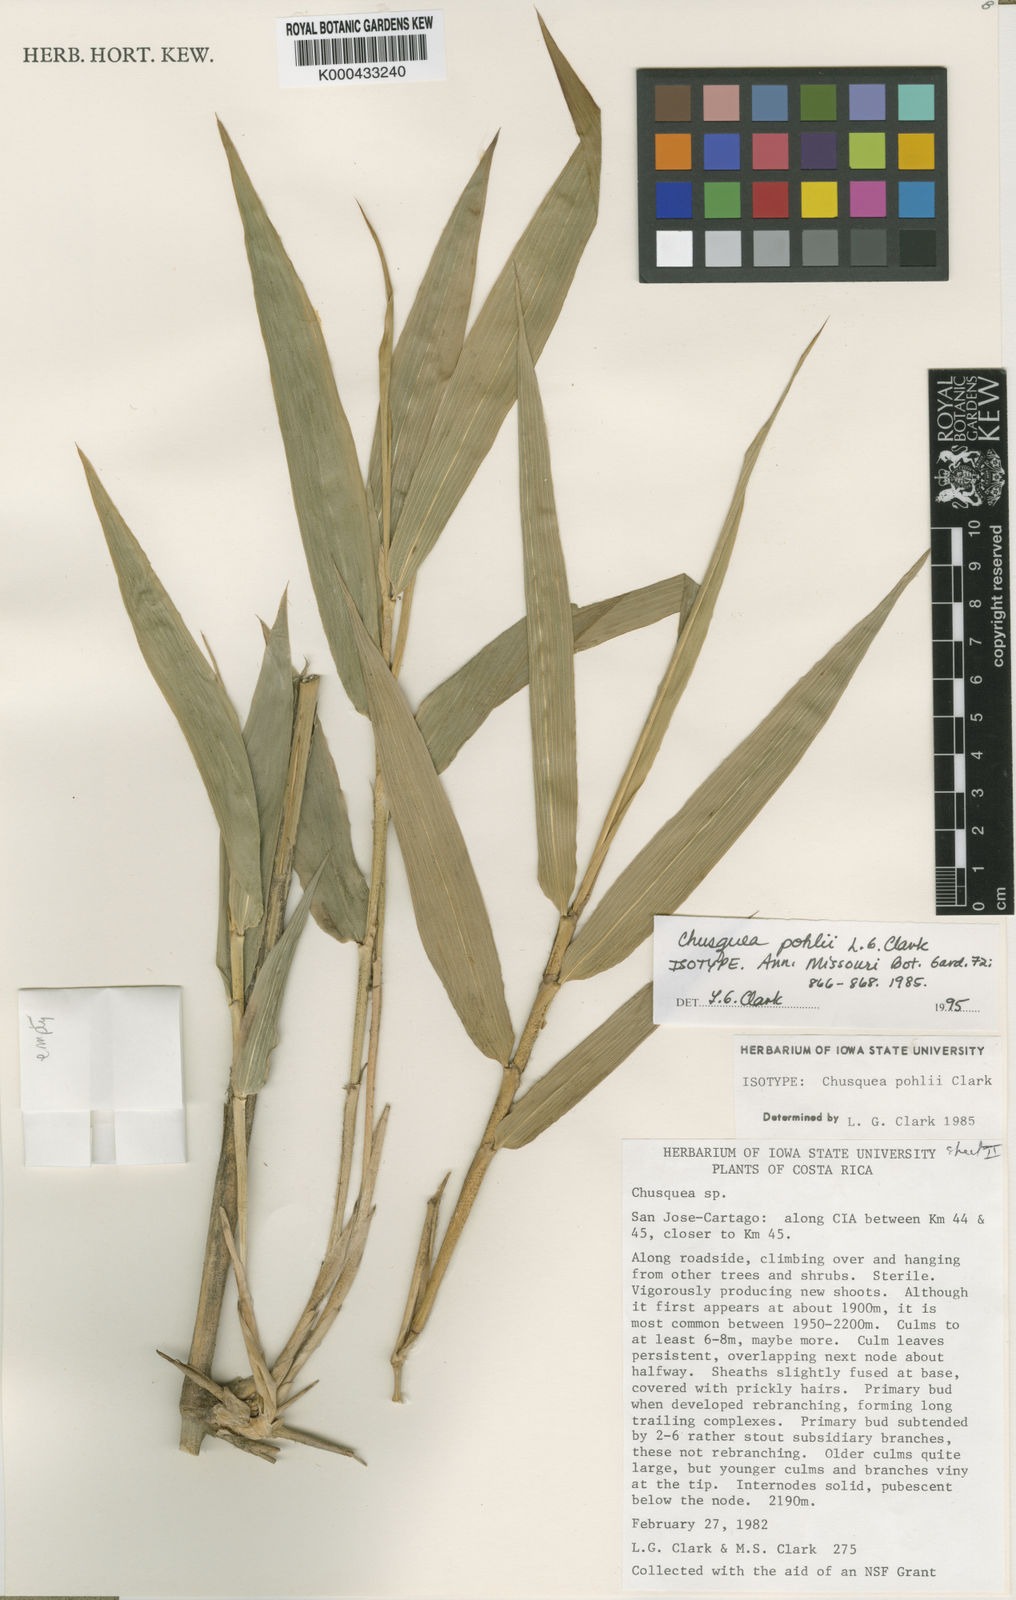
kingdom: Plantae
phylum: Tracheophyta
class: Liliopsida
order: Poales
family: Poaceae
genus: Chusquea
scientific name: Chusquea pohlii
